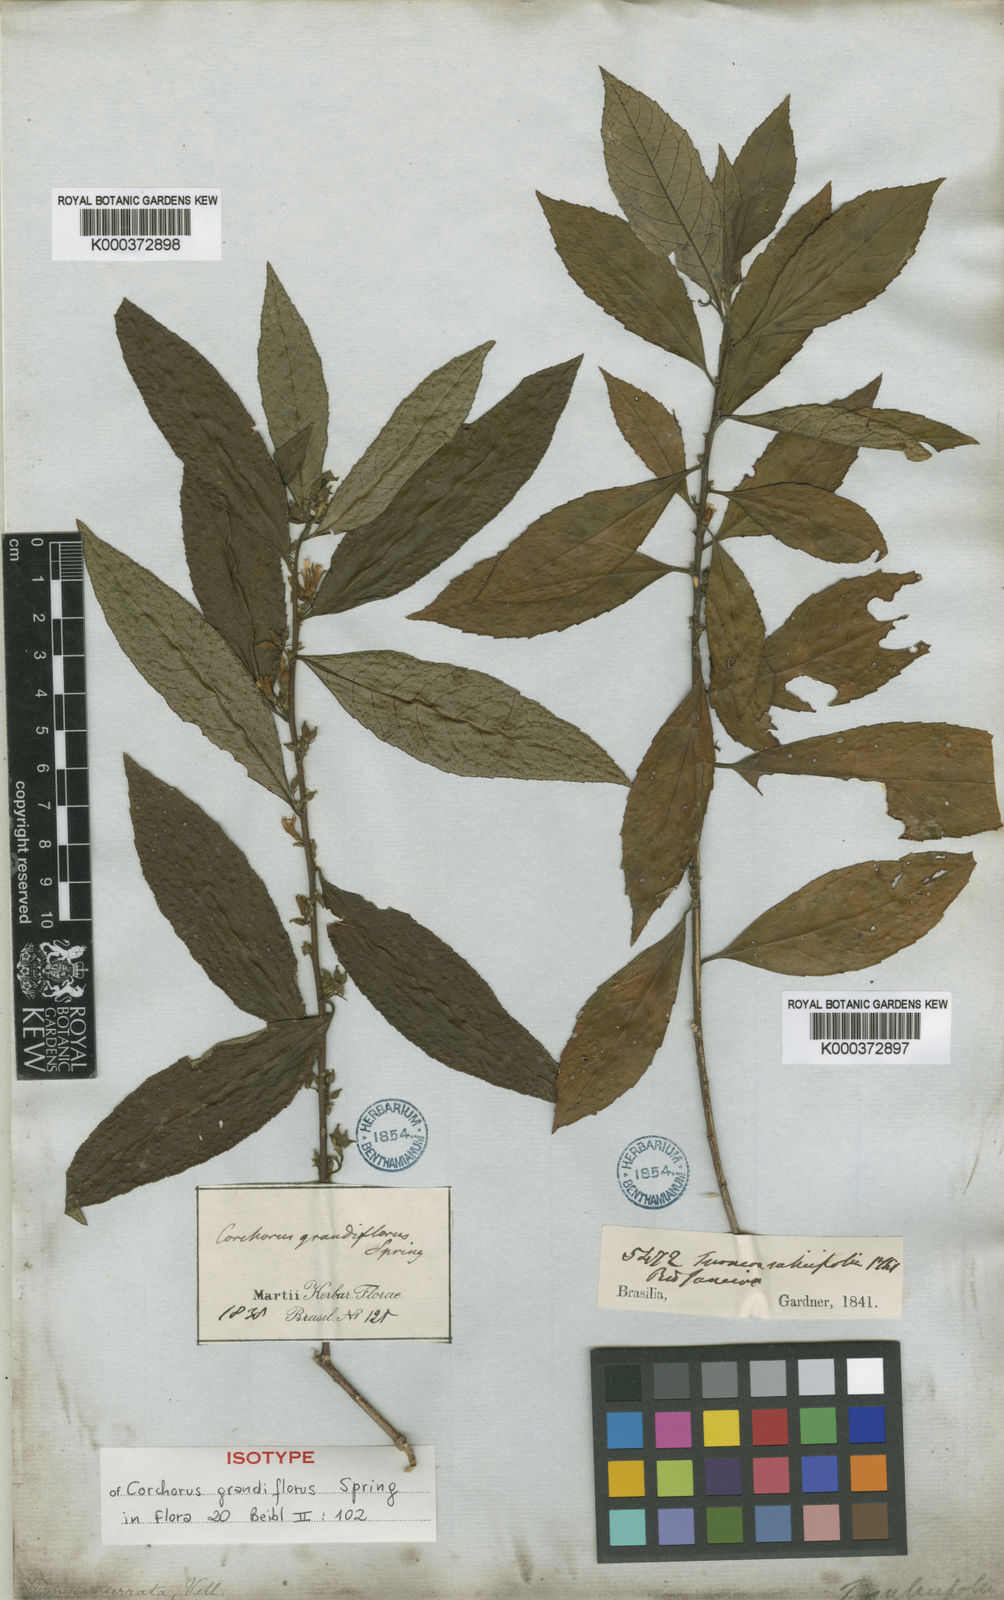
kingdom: Plantae
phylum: Tracheophyta
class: Magnoliopsida
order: Malpighiales
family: Turneraceae
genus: Turnera
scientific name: Turnera serrata
